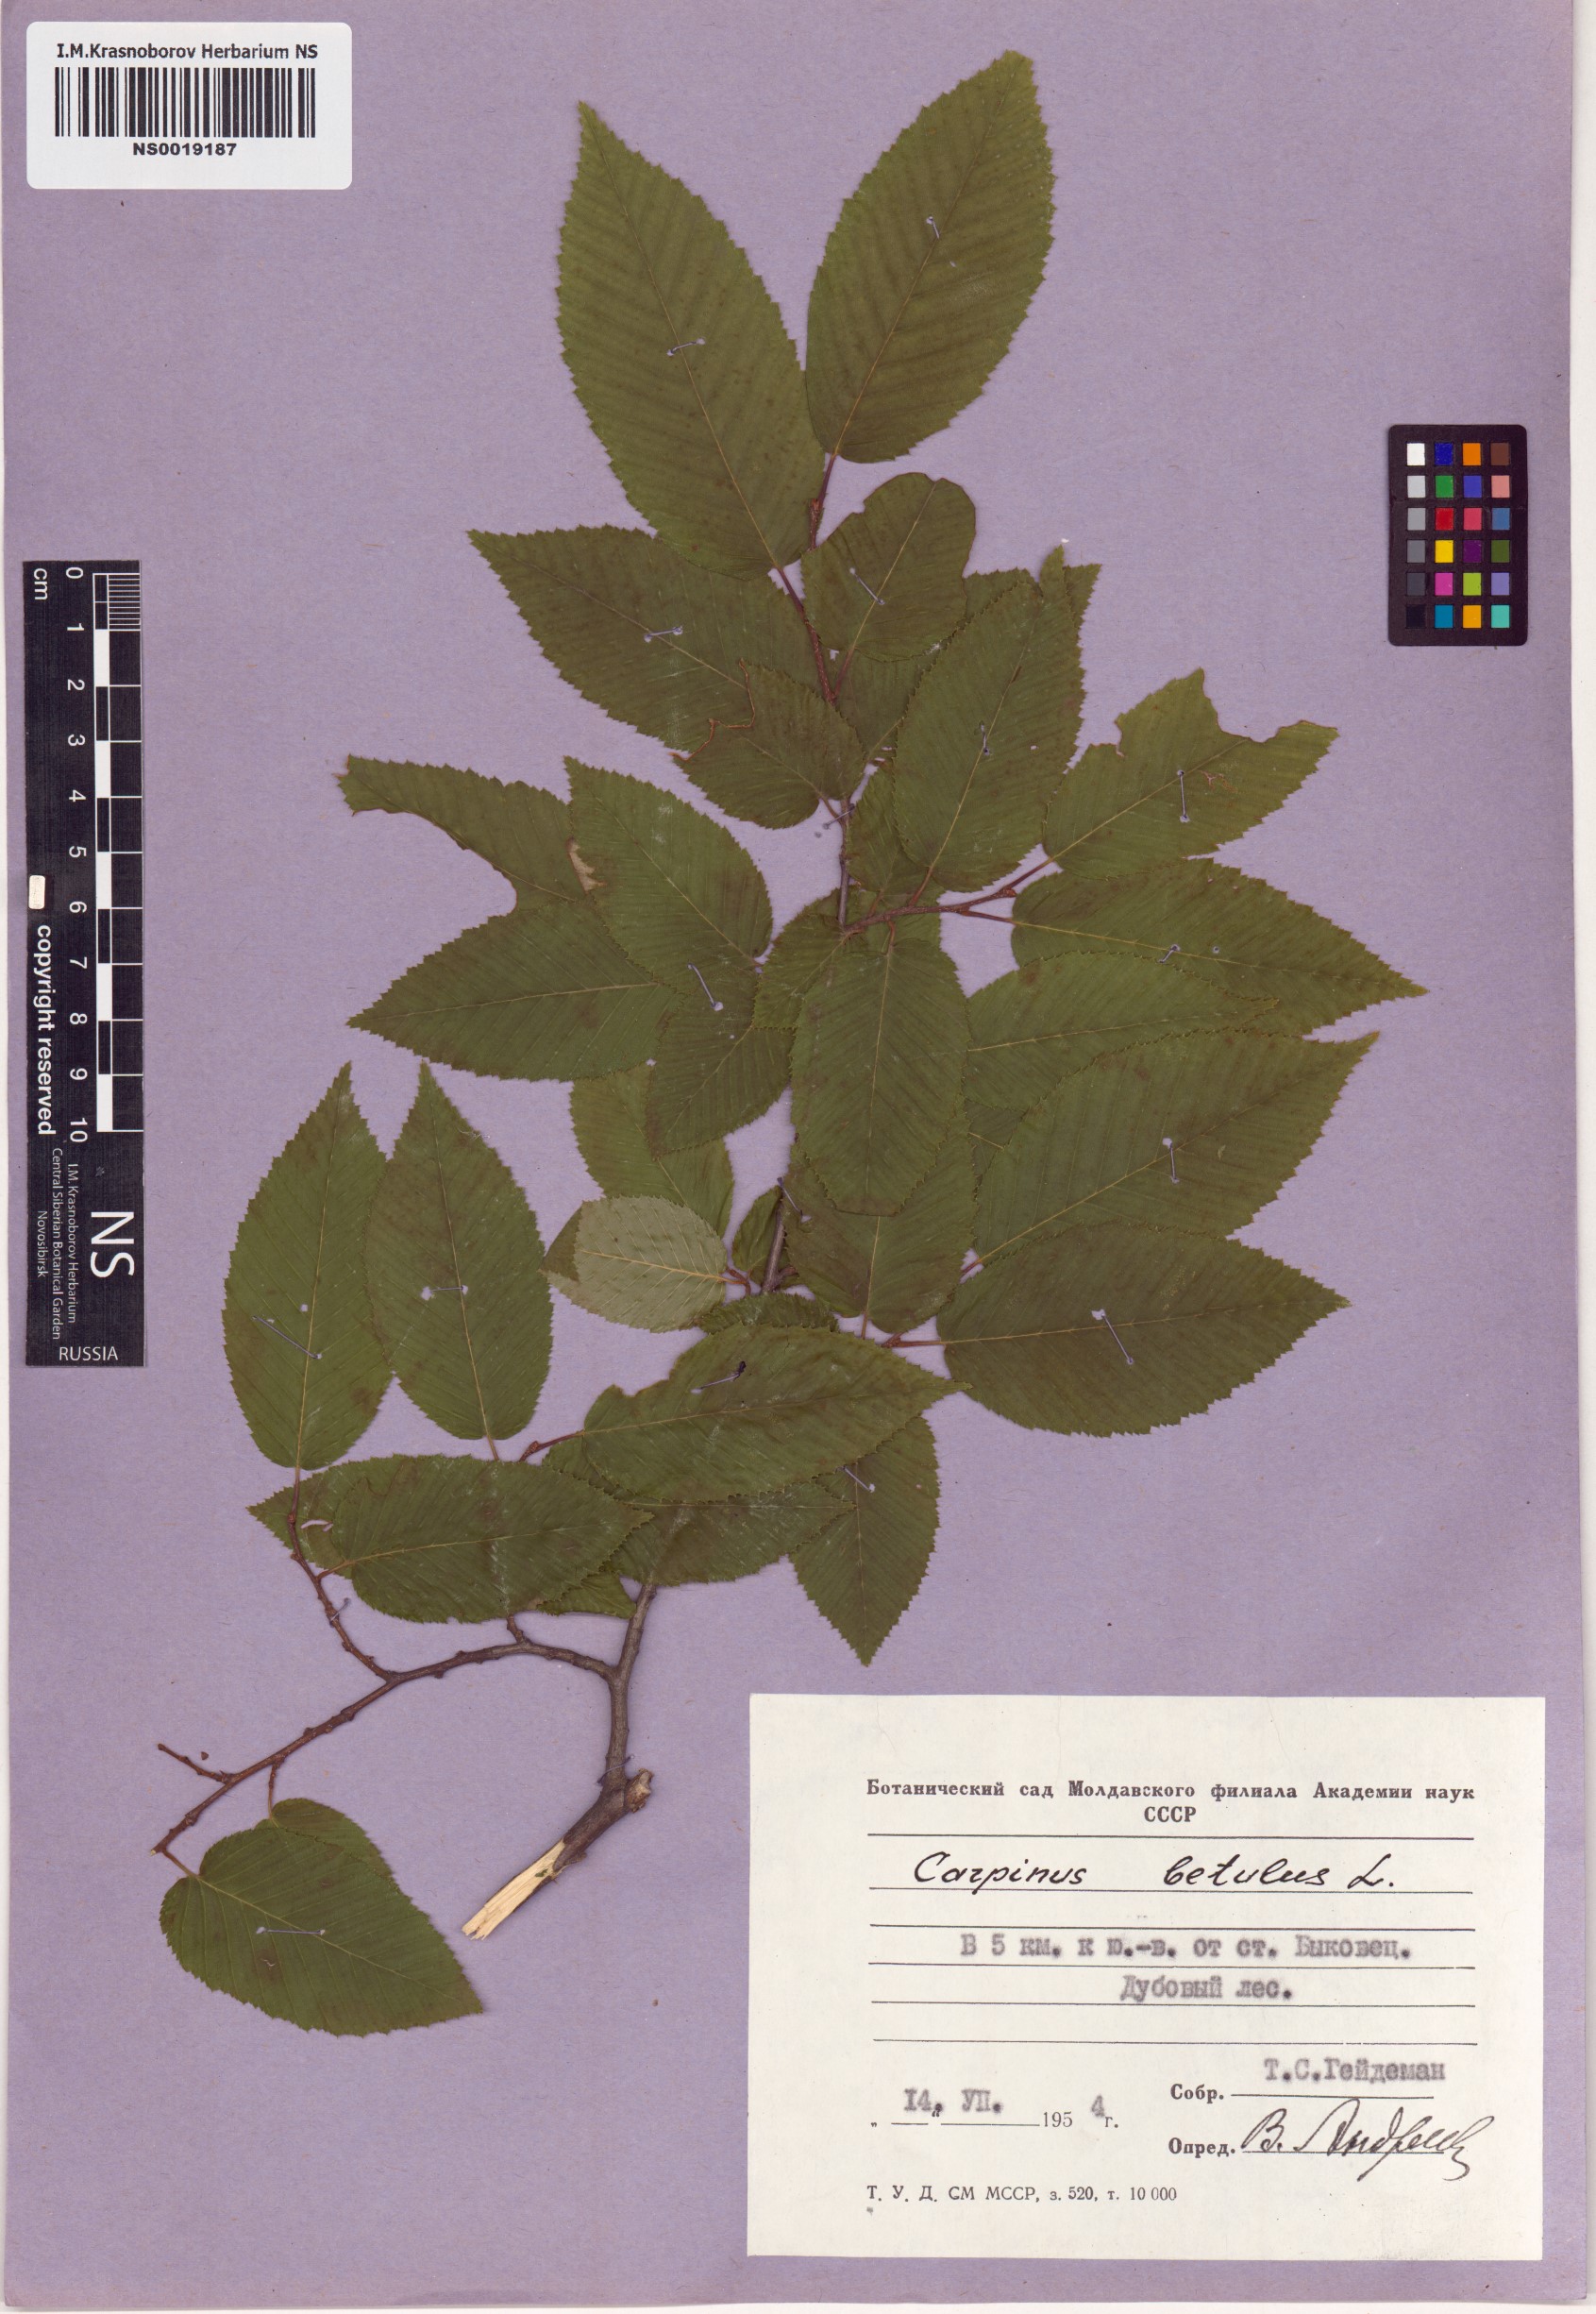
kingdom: Plantae
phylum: Tracheophyta
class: Magnoliopsida
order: Fagales
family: Betulaceae
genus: Carpinus
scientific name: Carpinus betulus
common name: Hornbeam
